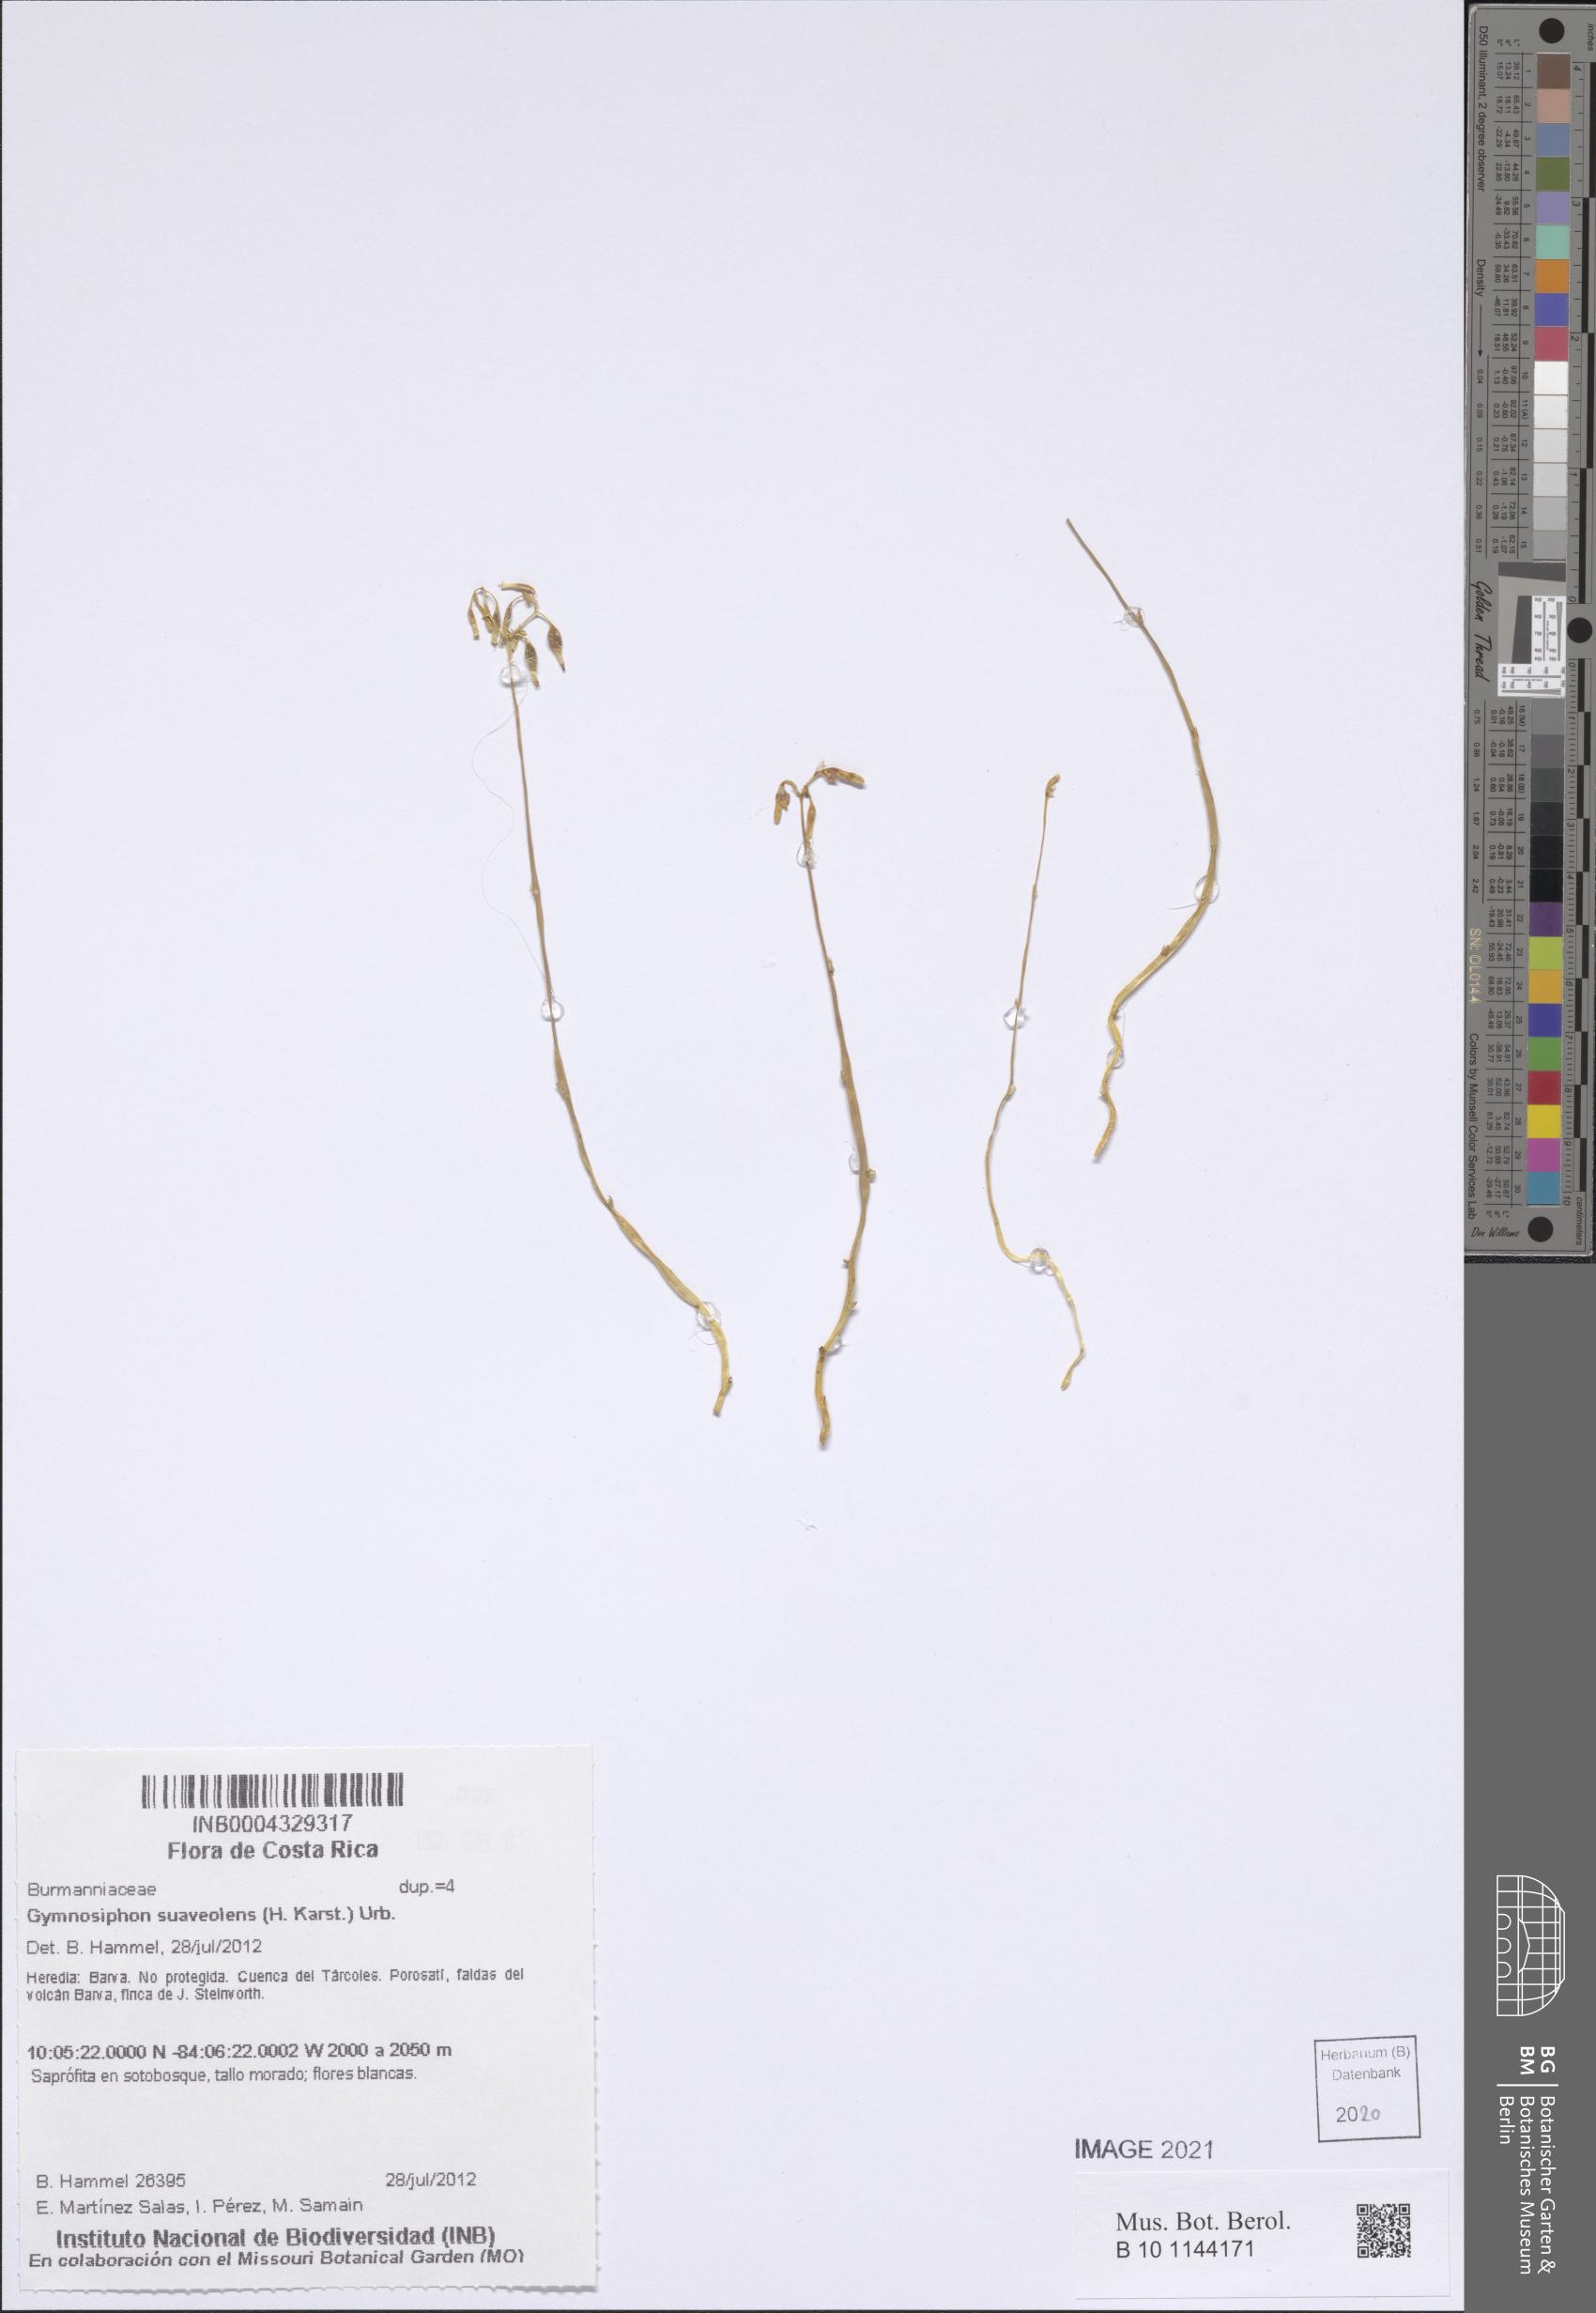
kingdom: Plantae
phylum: Tracheophyta
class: Liliopsida
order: Dioscoreales
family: Burmanniaceae
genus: Gymnosiphon
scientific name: Gymnosiphon suaveolens
